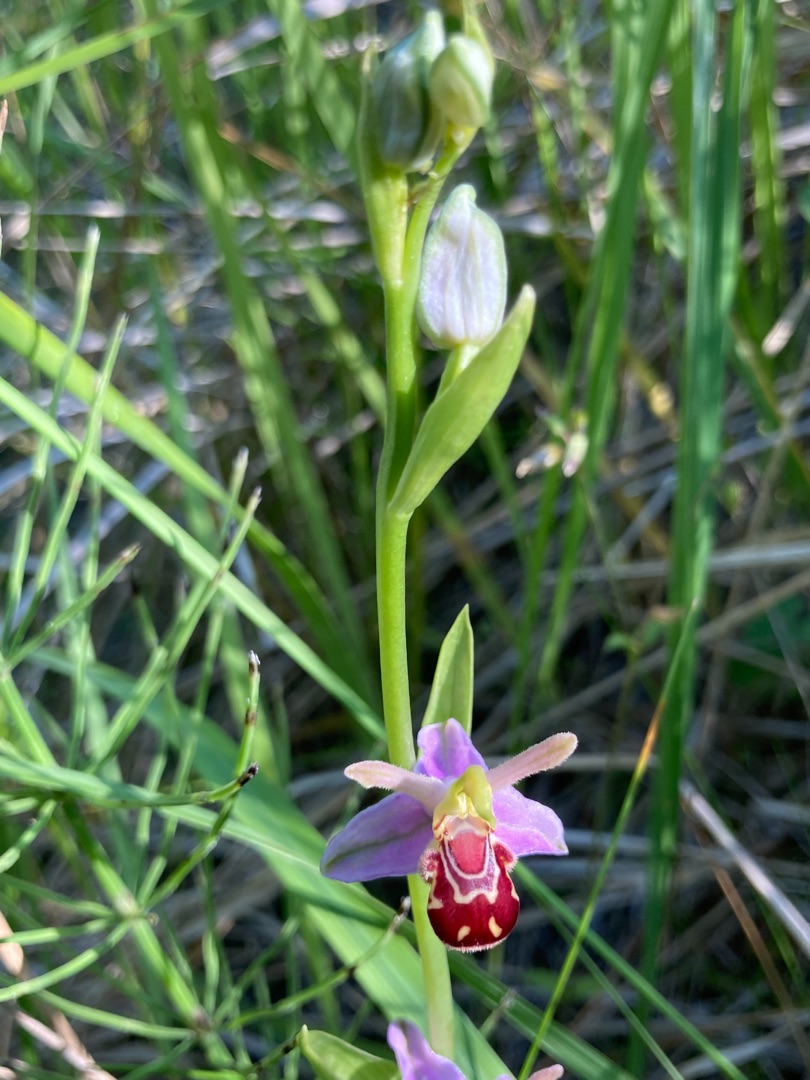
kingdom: Plantae
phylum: Tracheophyta
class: Liliopsida
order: Asparagales
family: Orchidaceae
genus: Ophrys
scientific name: Ophrys apifera
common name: Biblomst
